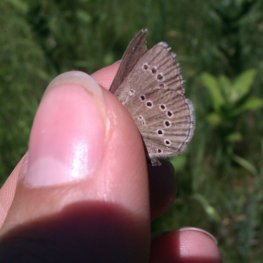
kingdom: Animalia
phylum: Arthropoda
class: Insecta
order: Lepidoptera
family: Lycaenidae
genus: Glaucopsyche
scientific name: Glaucopsyche lygdamus
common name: Silvery Blue
